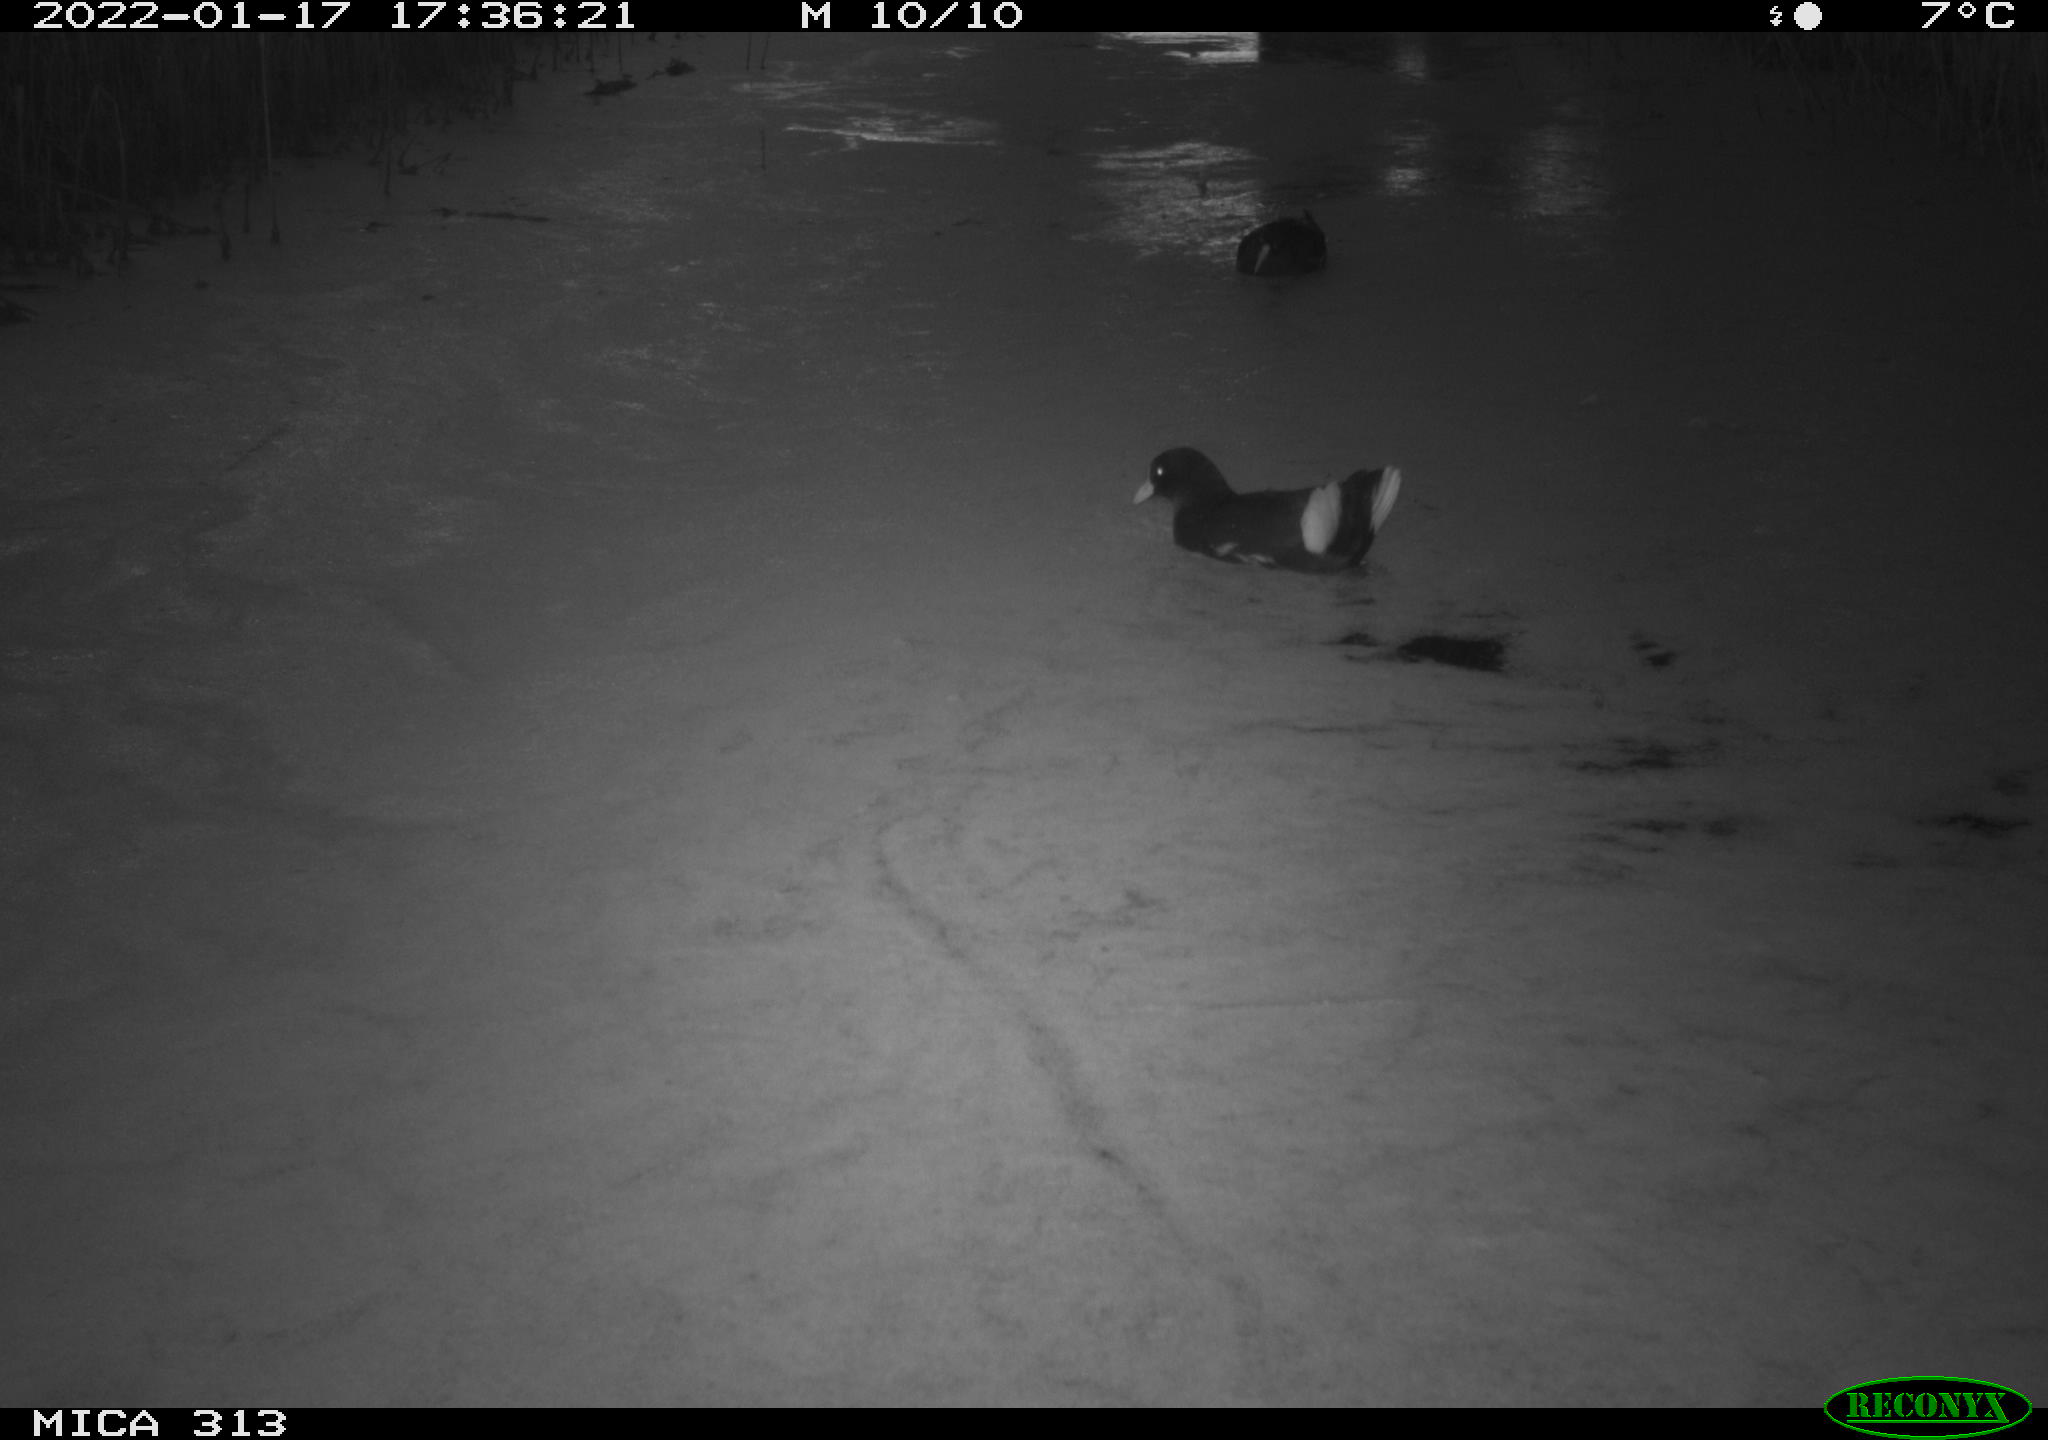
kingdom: Animalia
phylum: Chordata
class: Aves
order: Anseriformes
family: Anatidae
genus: Anas
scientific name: Anas
